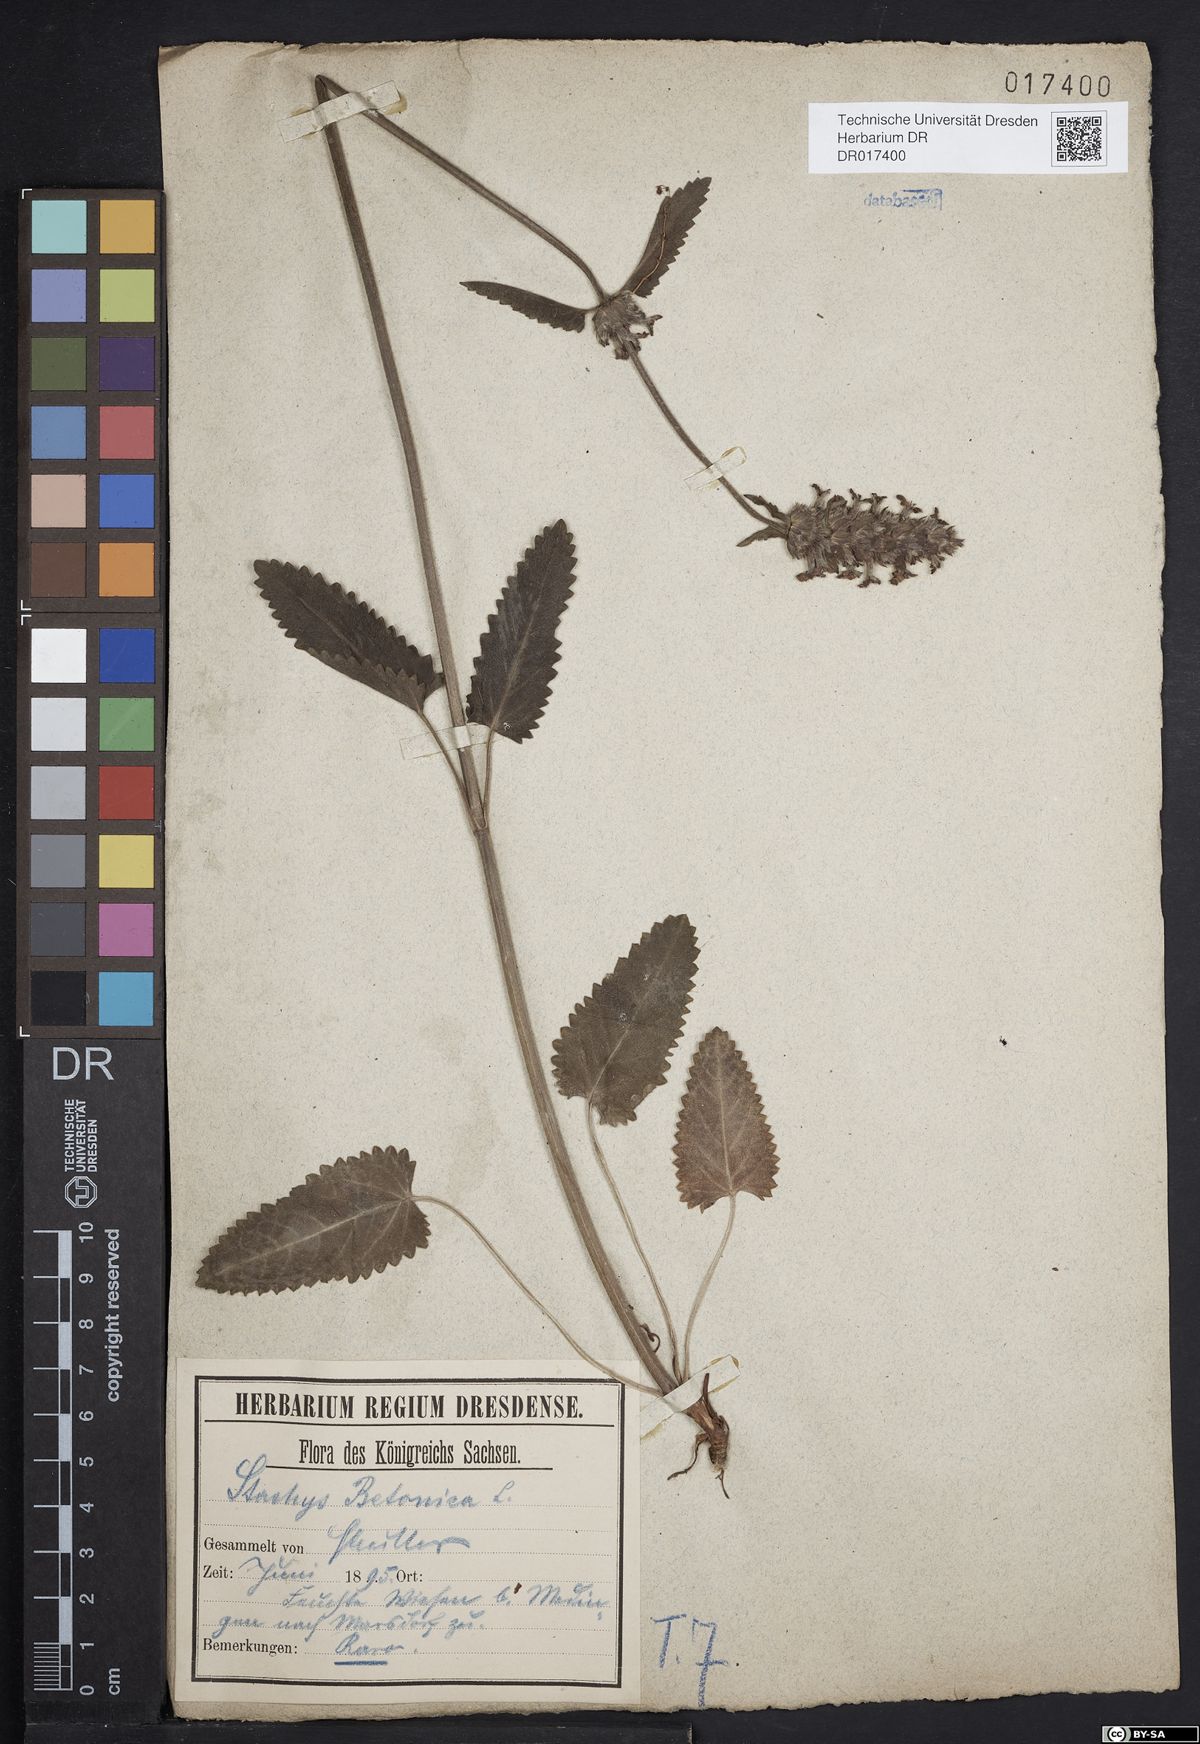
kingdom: Plantae
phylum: Tracheophyta
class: Magnoliopsida
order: Lamiales
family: Lamiaceae
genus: Betonica
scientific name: Betonica officinalis
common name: Bishop's-wort
